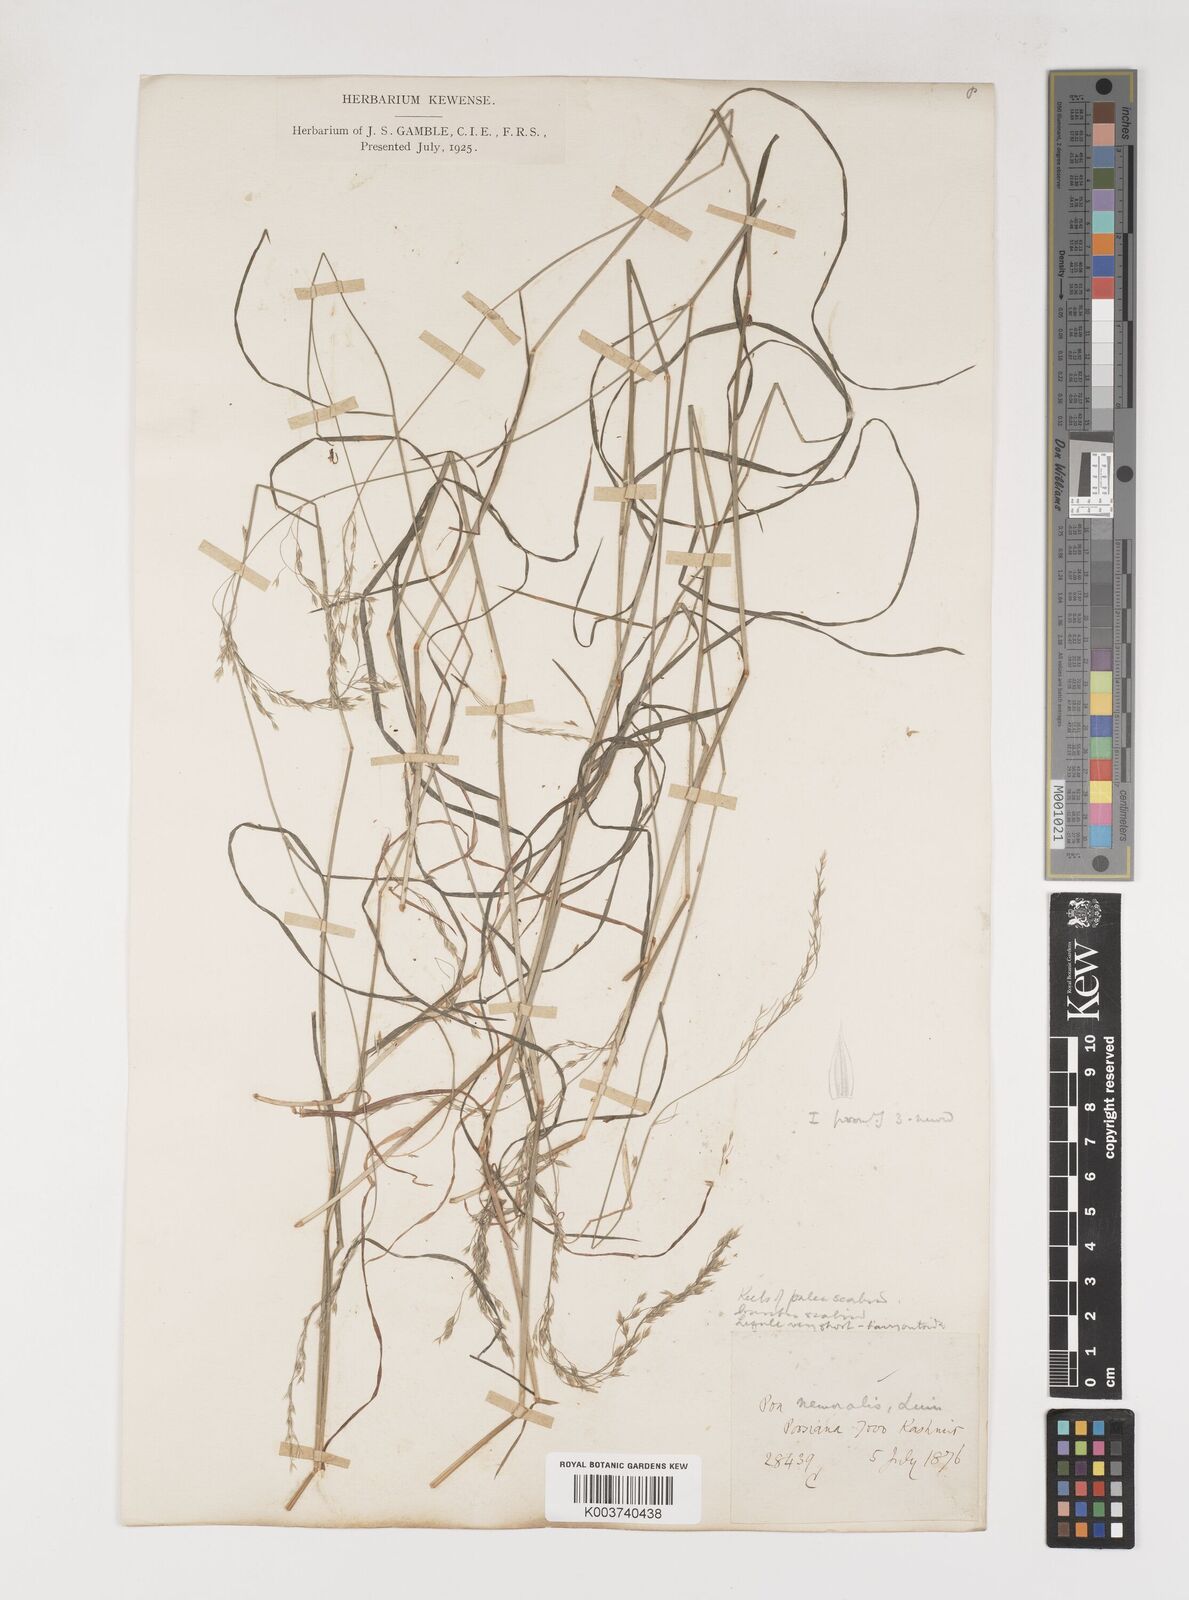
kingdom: Plantae
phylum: Tracheophyta
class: Liliopsida
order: Poales
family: Poaceae
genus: Poa
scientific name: Poa nemoralis
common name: Wood bluegrass
